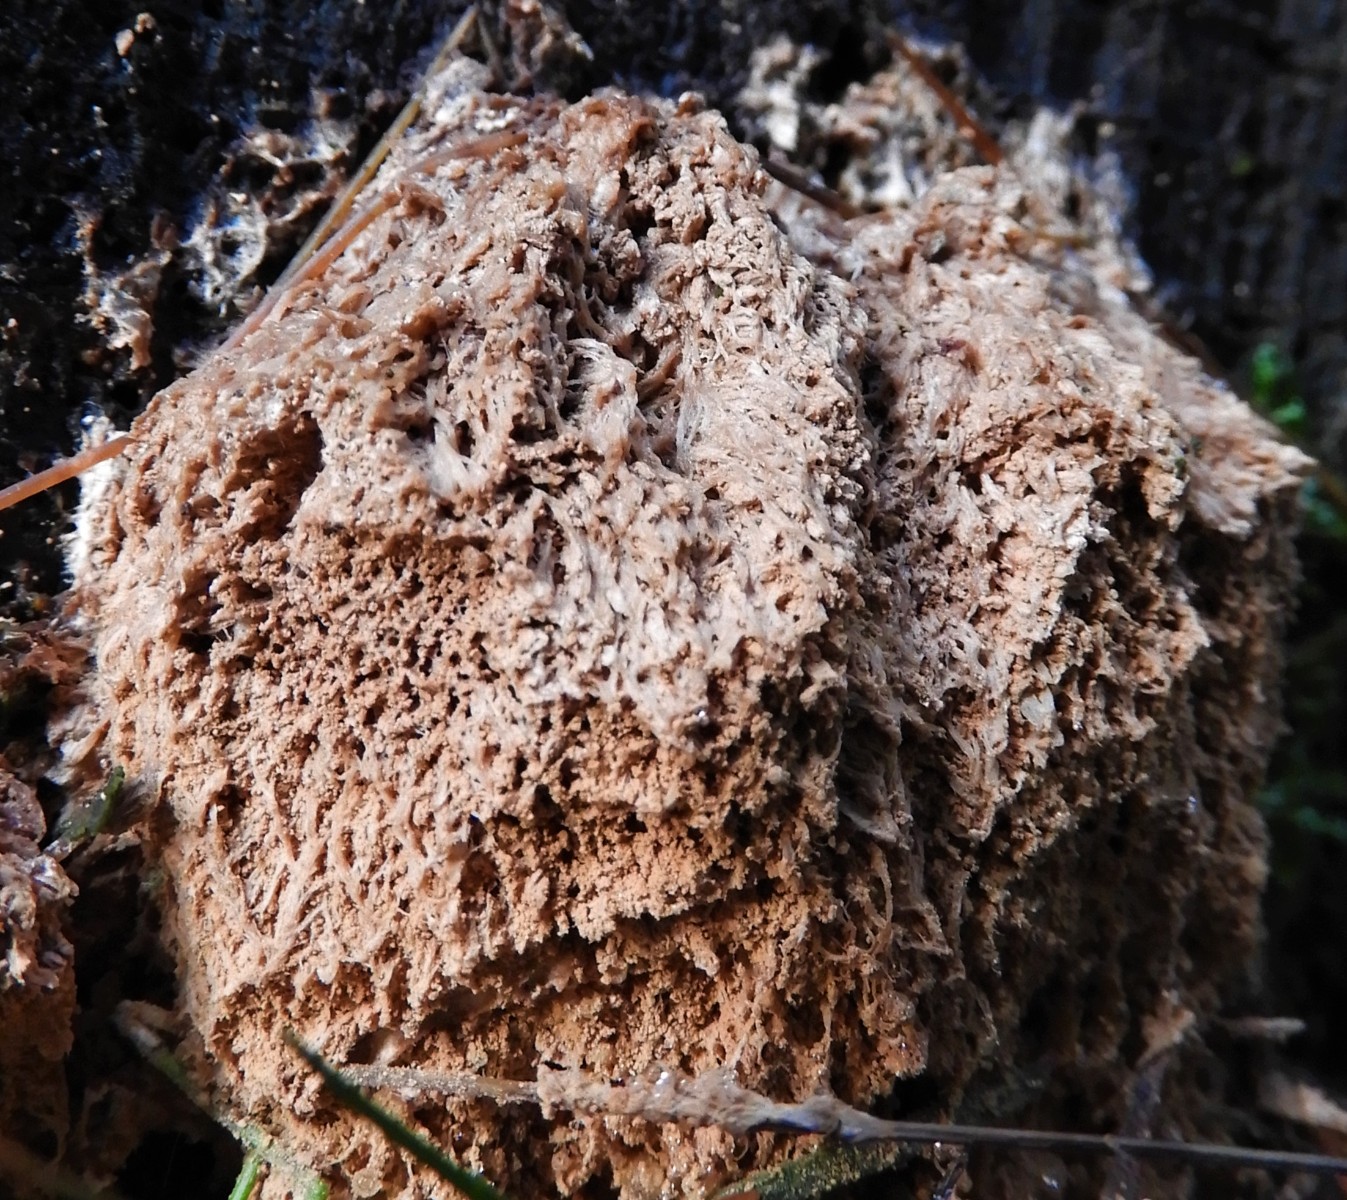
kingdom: Fungi
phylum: Basidiomycota
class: Agaricomycetes
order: Polyporales
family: Dacryobolaceae
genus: Postia
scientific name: Postia ptychogaster
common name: støvende kødporesvamp
